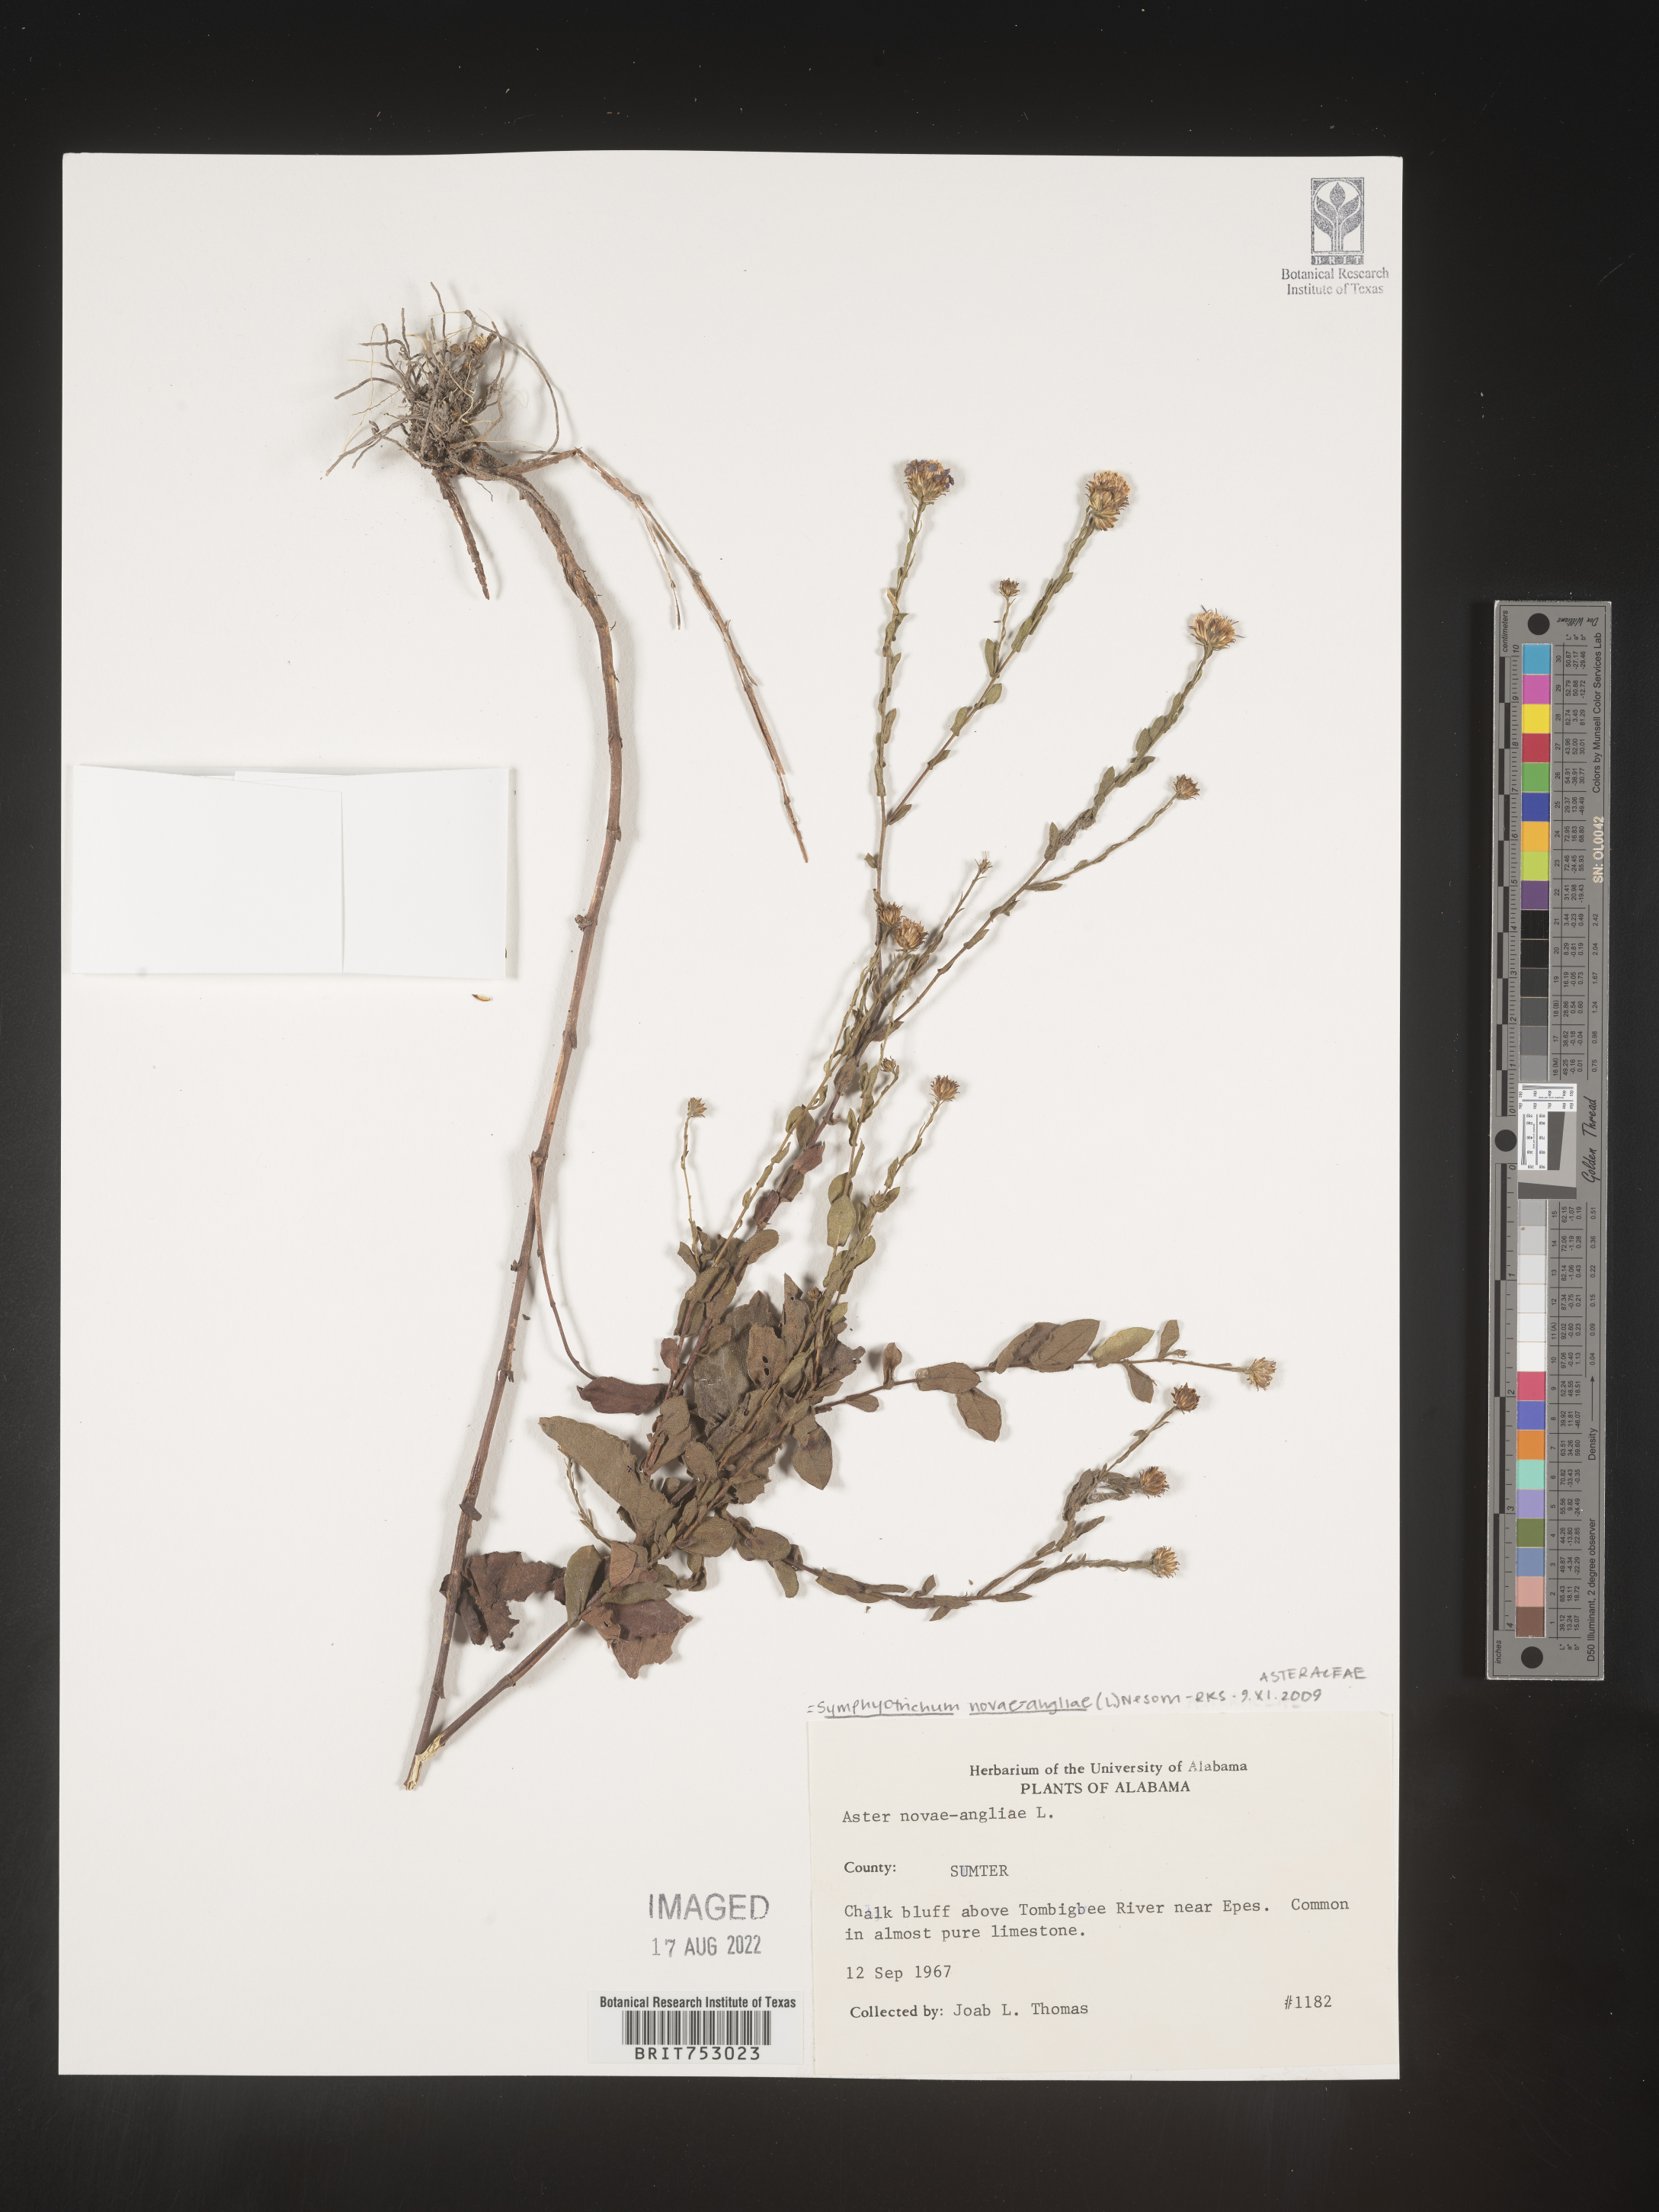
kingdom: Plantae
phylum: Tracheophyta
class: Magnoliopsida
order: Asterales
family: Asteraceae
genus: Symphyotrichum
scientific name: Symphyotrichum novae-angliae
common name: Michaelmas daisy
